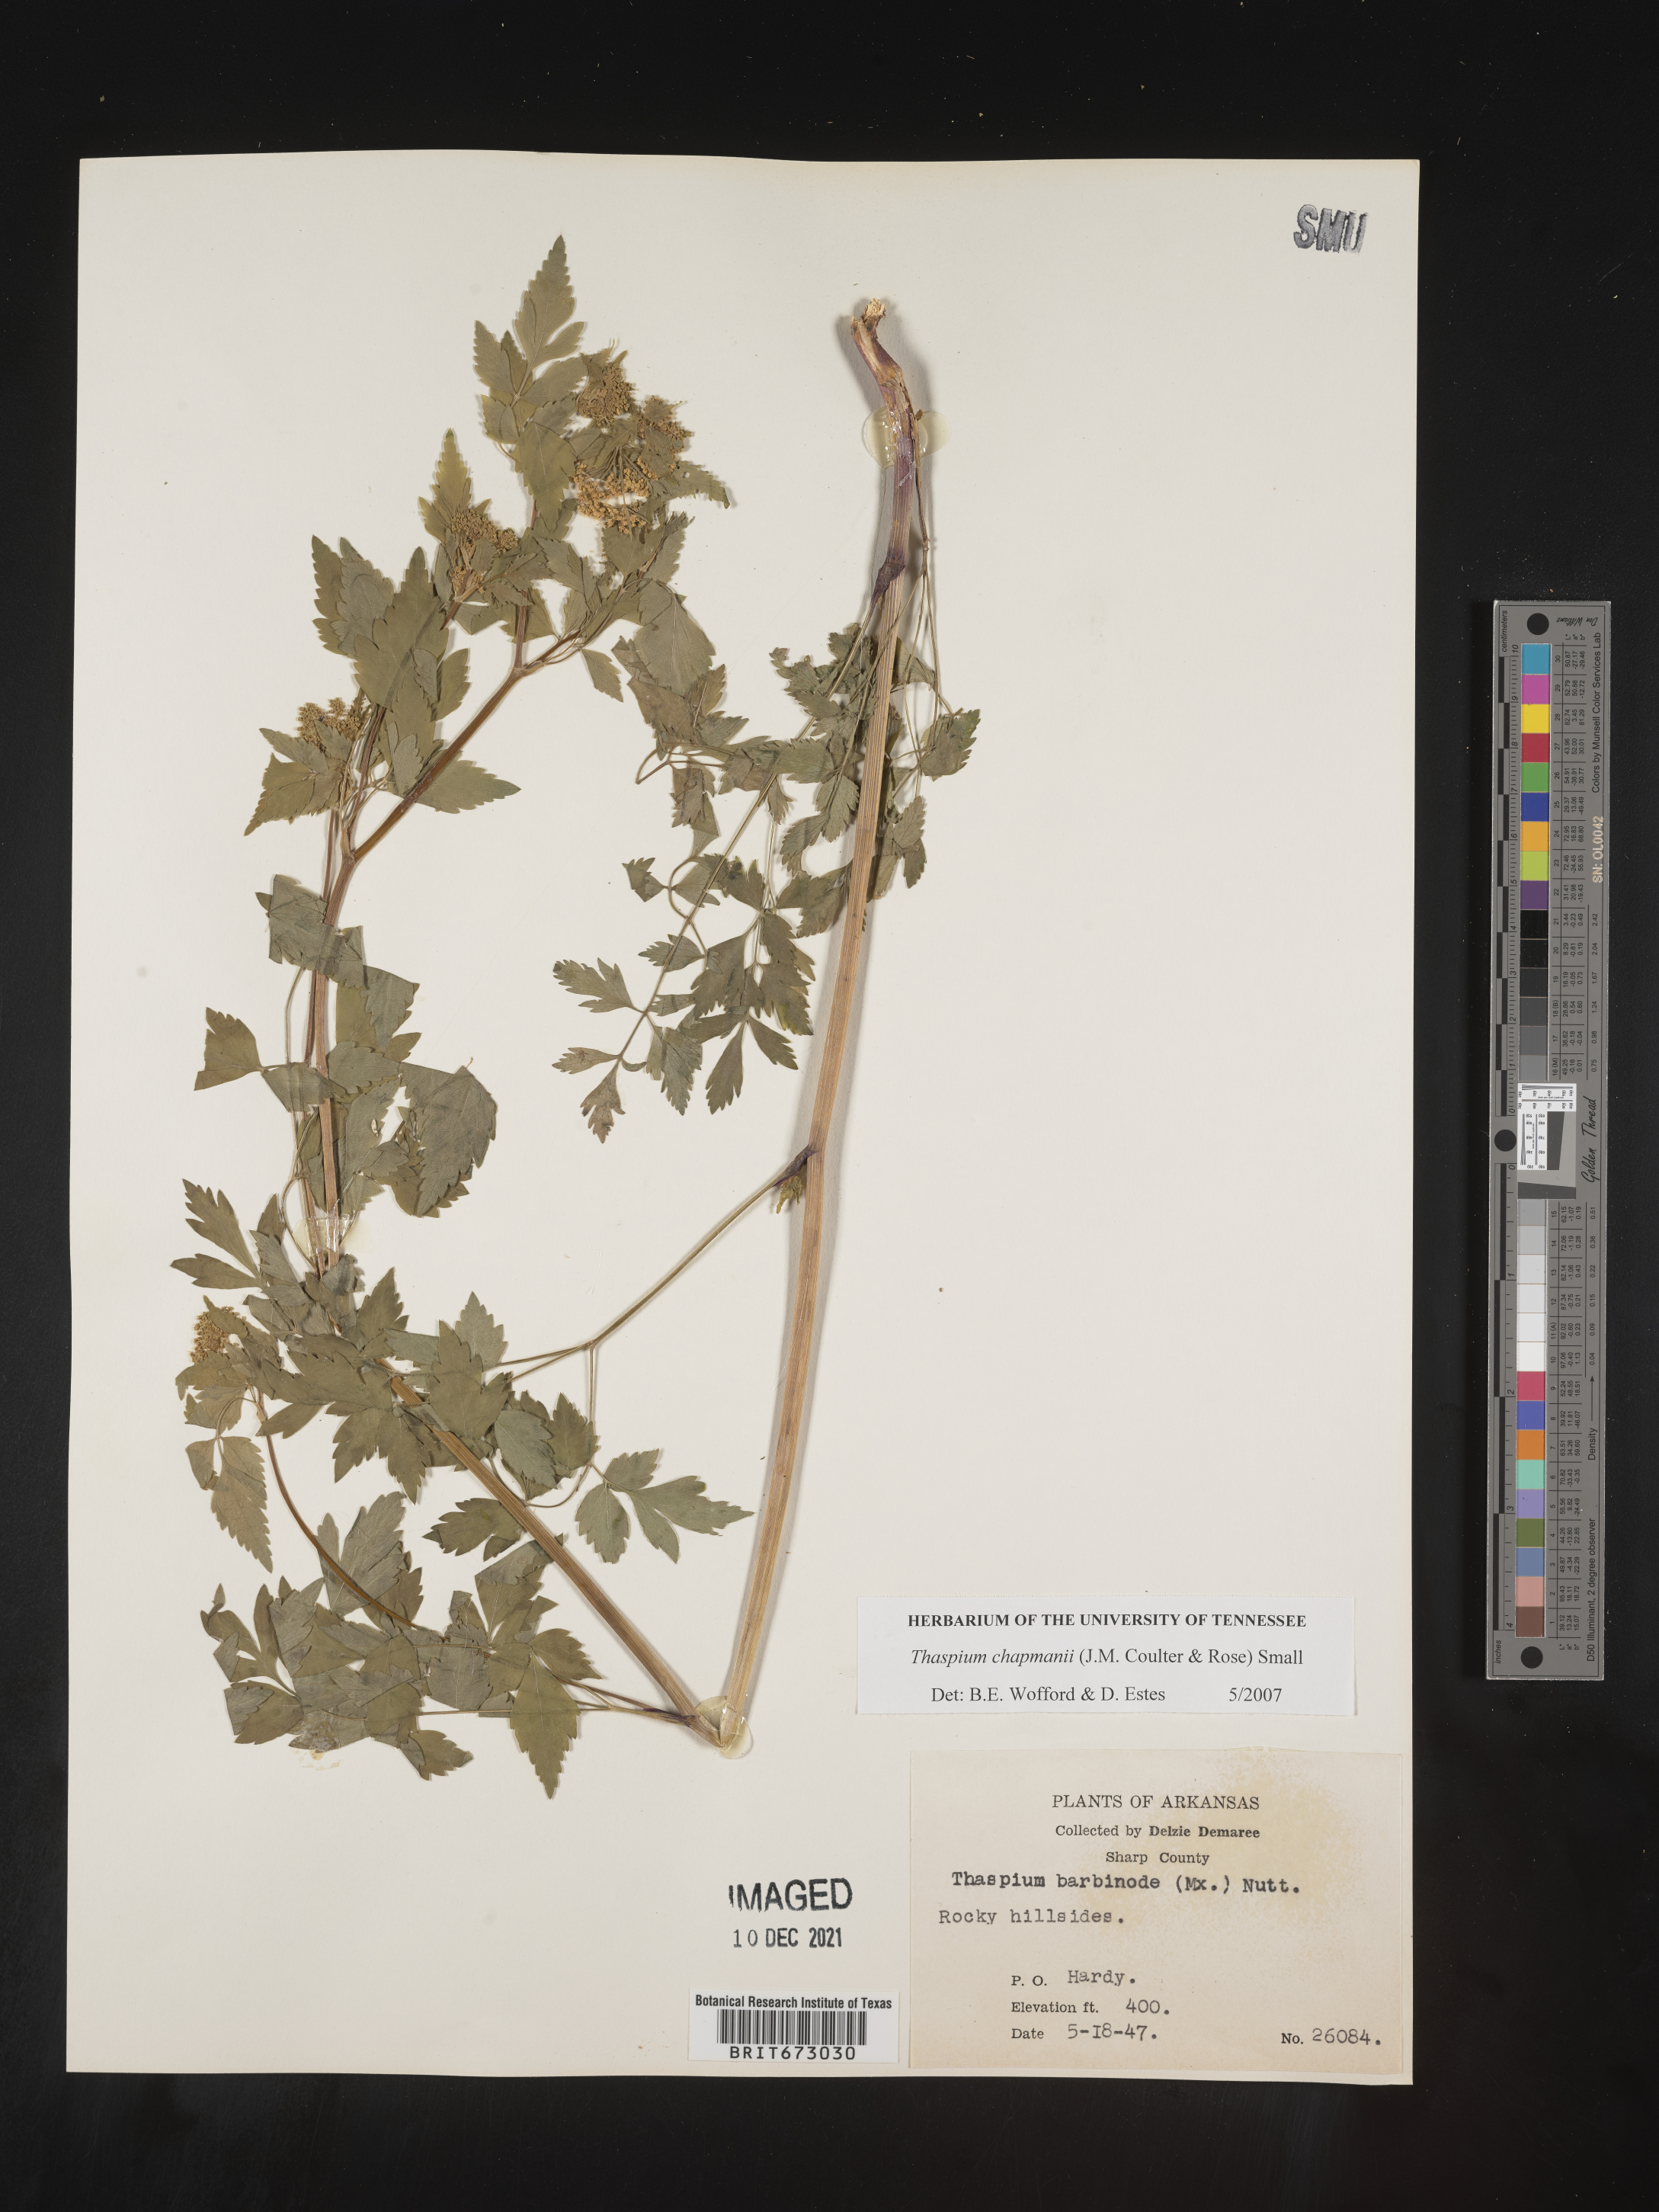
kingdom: Plantae
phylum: Tracheophyta
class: Magnoliopsida
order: Apiales
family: Apiaceae
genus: Thaspium
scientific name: Thaspium barbinode
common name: Bearded meadow-parsnip
